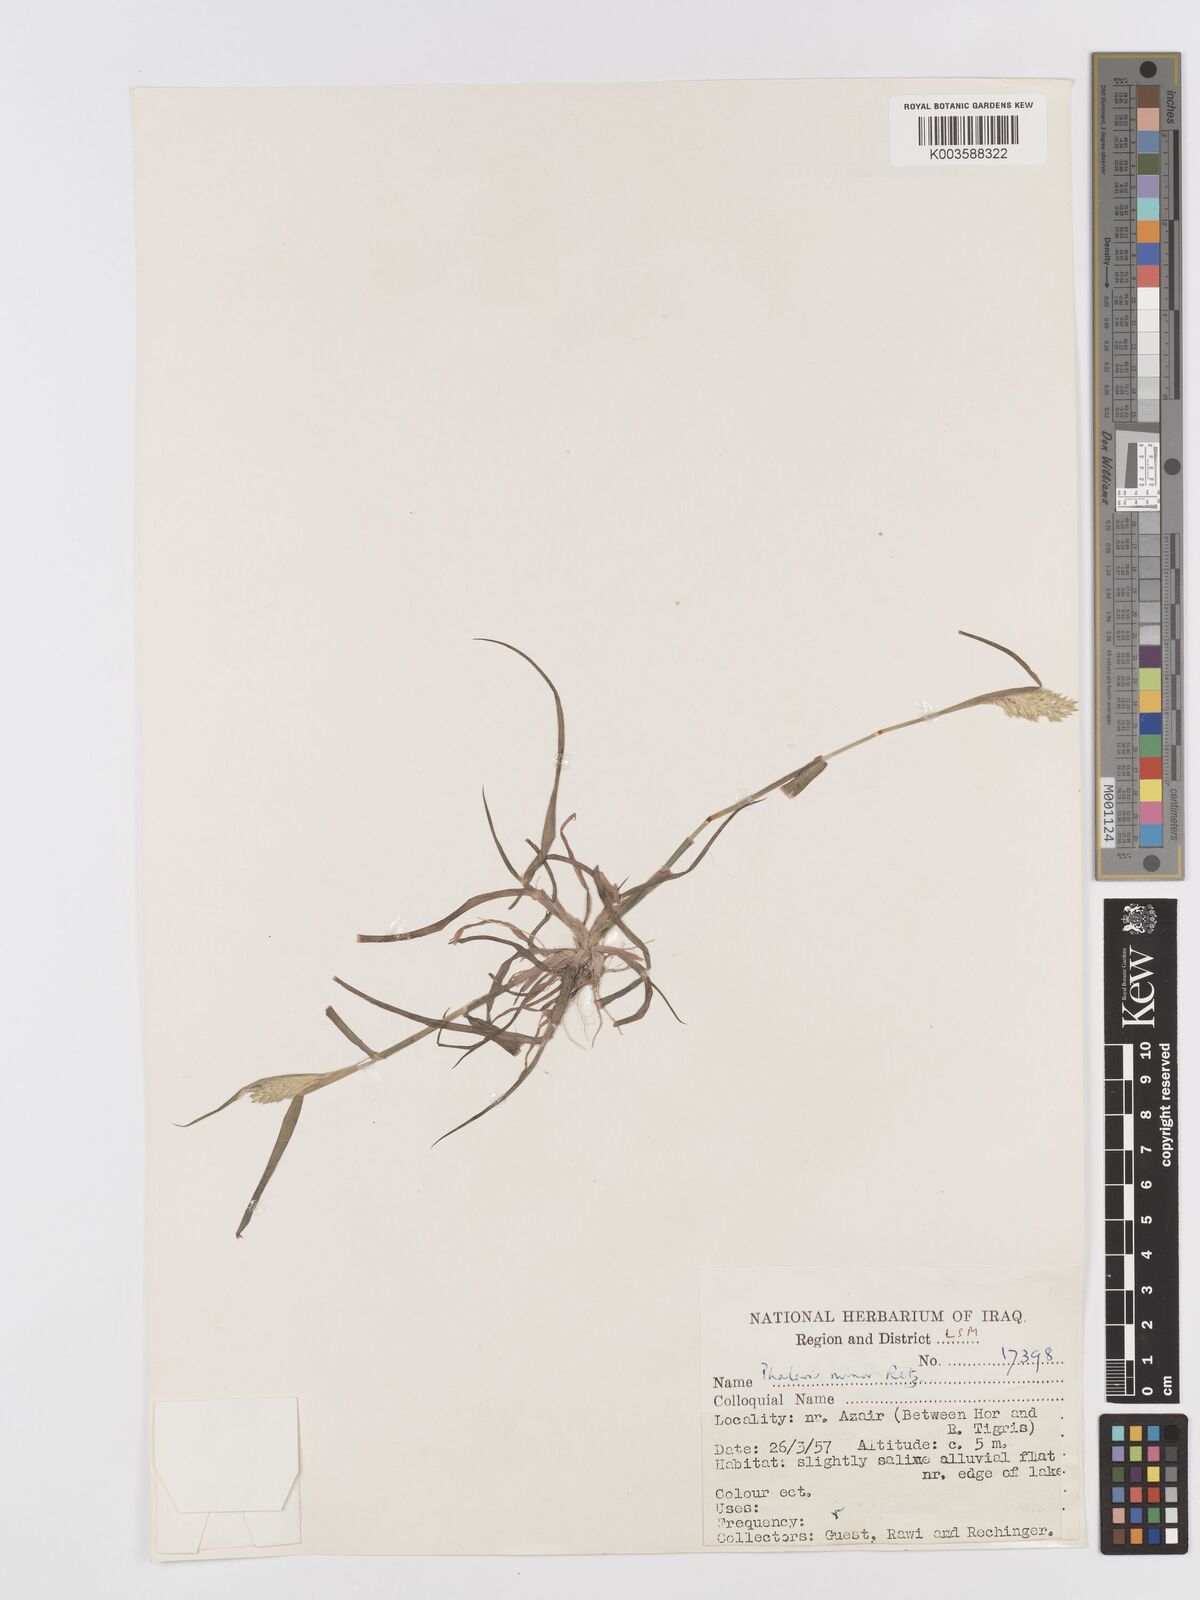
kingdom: Plantae
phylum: Tracheophyta
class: Liliopsida
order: Poales
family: Poaceae
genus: Phalaris
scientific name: Phalaris minor
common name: Littleseed canarygrass
